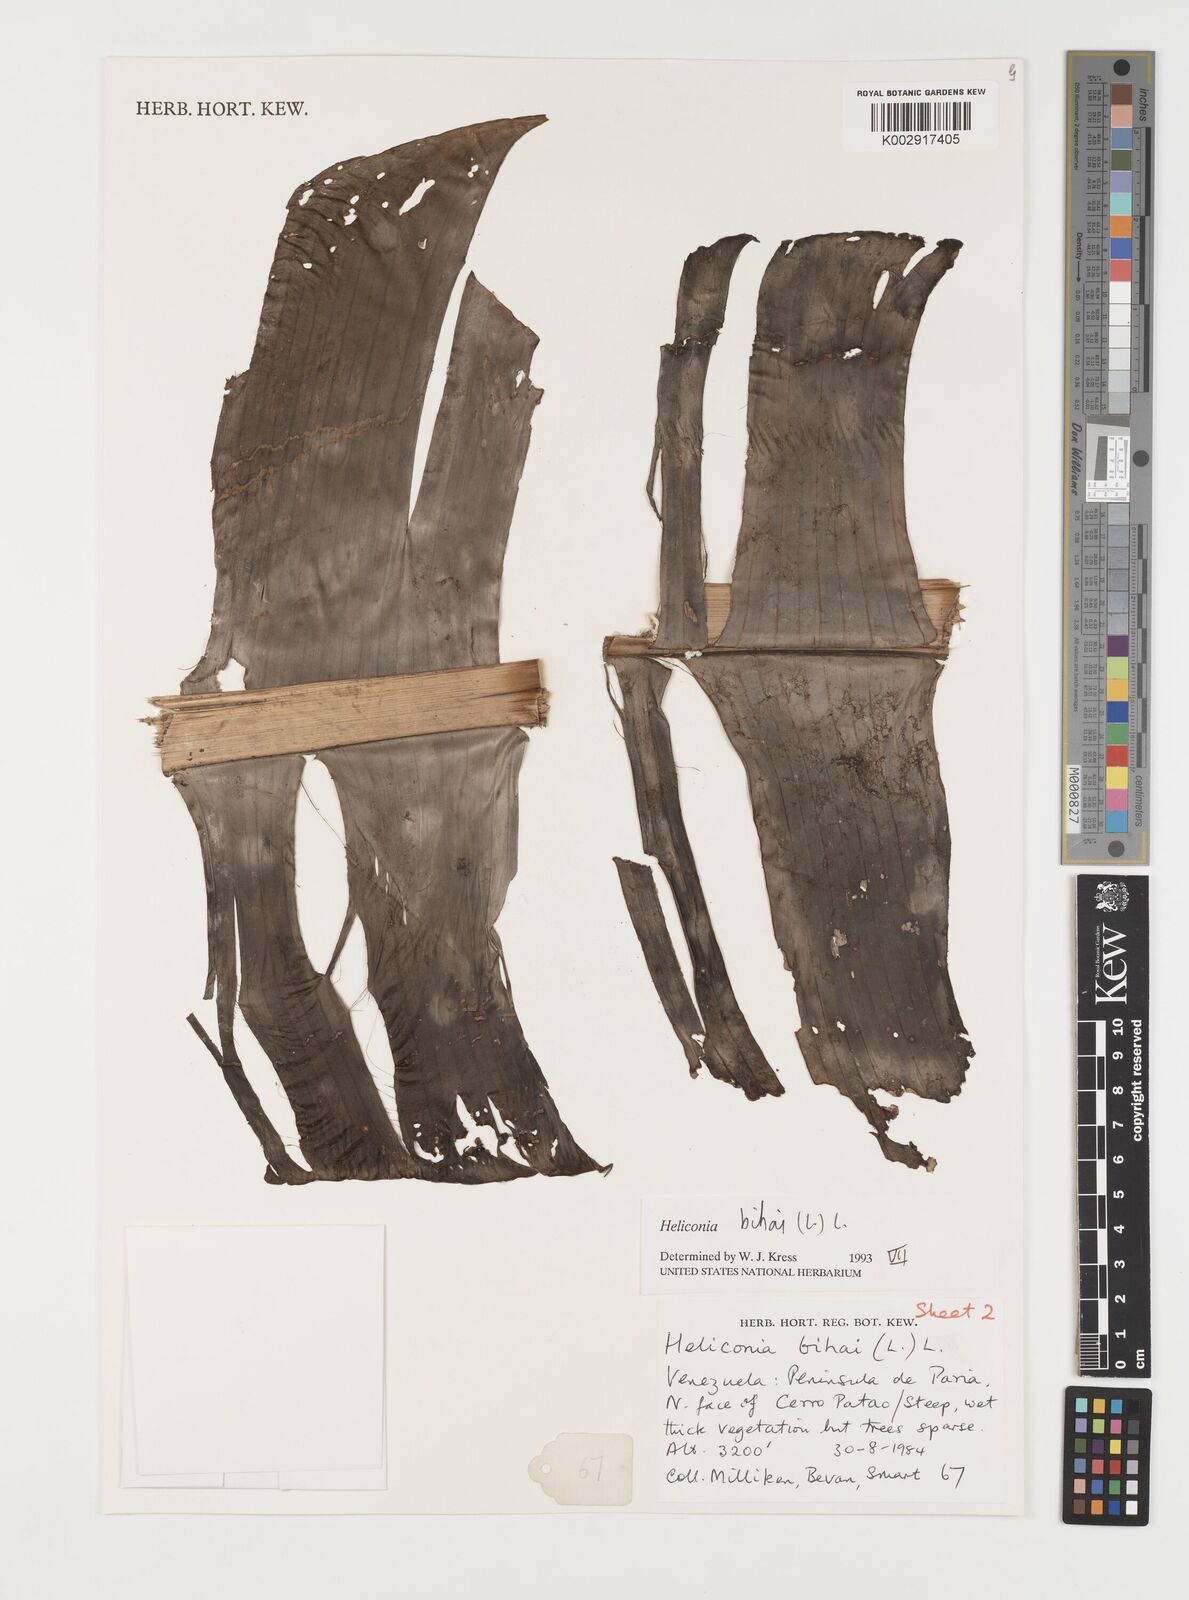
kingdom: Plantae
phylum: Tracheophyta
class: Liliopsida
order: Zingiberales
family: Heliconiaceae
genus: Heliconia
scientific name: Heliconia bihai
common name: Macaw flower
